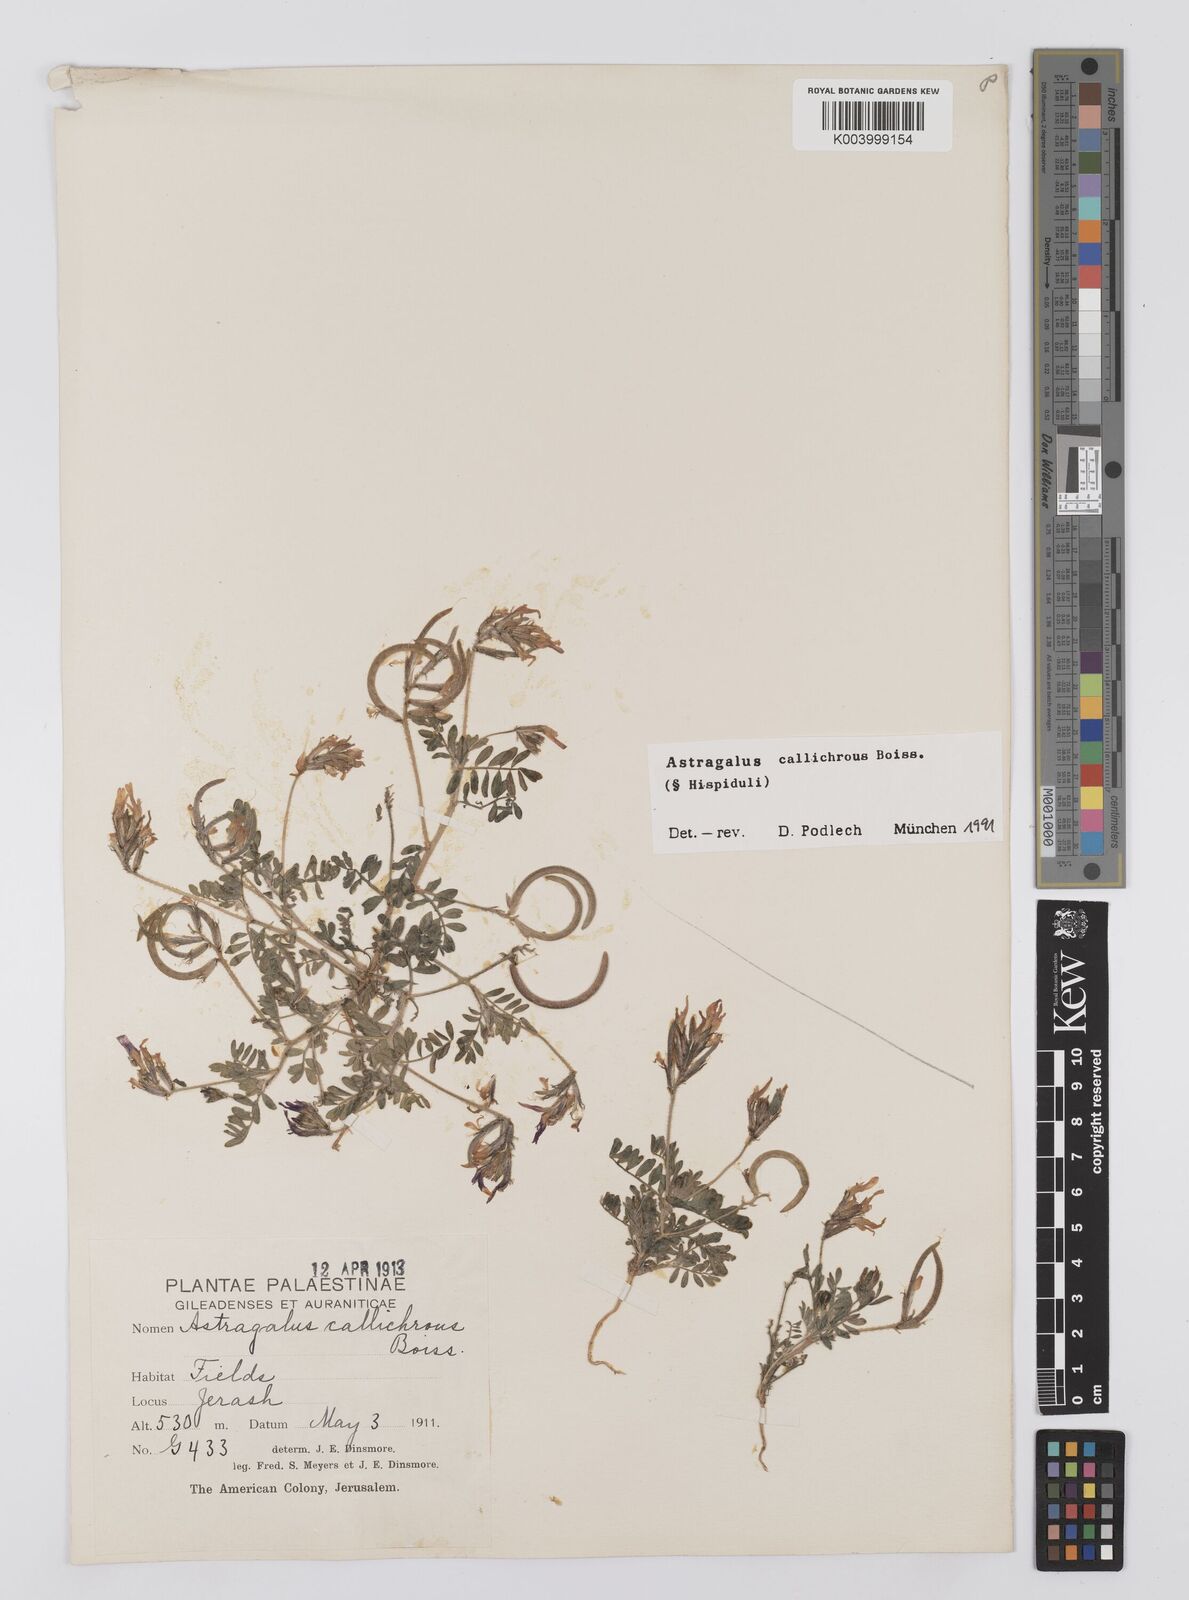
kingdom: Plantae
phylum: Tracheophyta
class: Magnoliopsida
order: Fabales
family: Fabaceae
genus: Astragalus
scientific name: Astragalus callichrous
